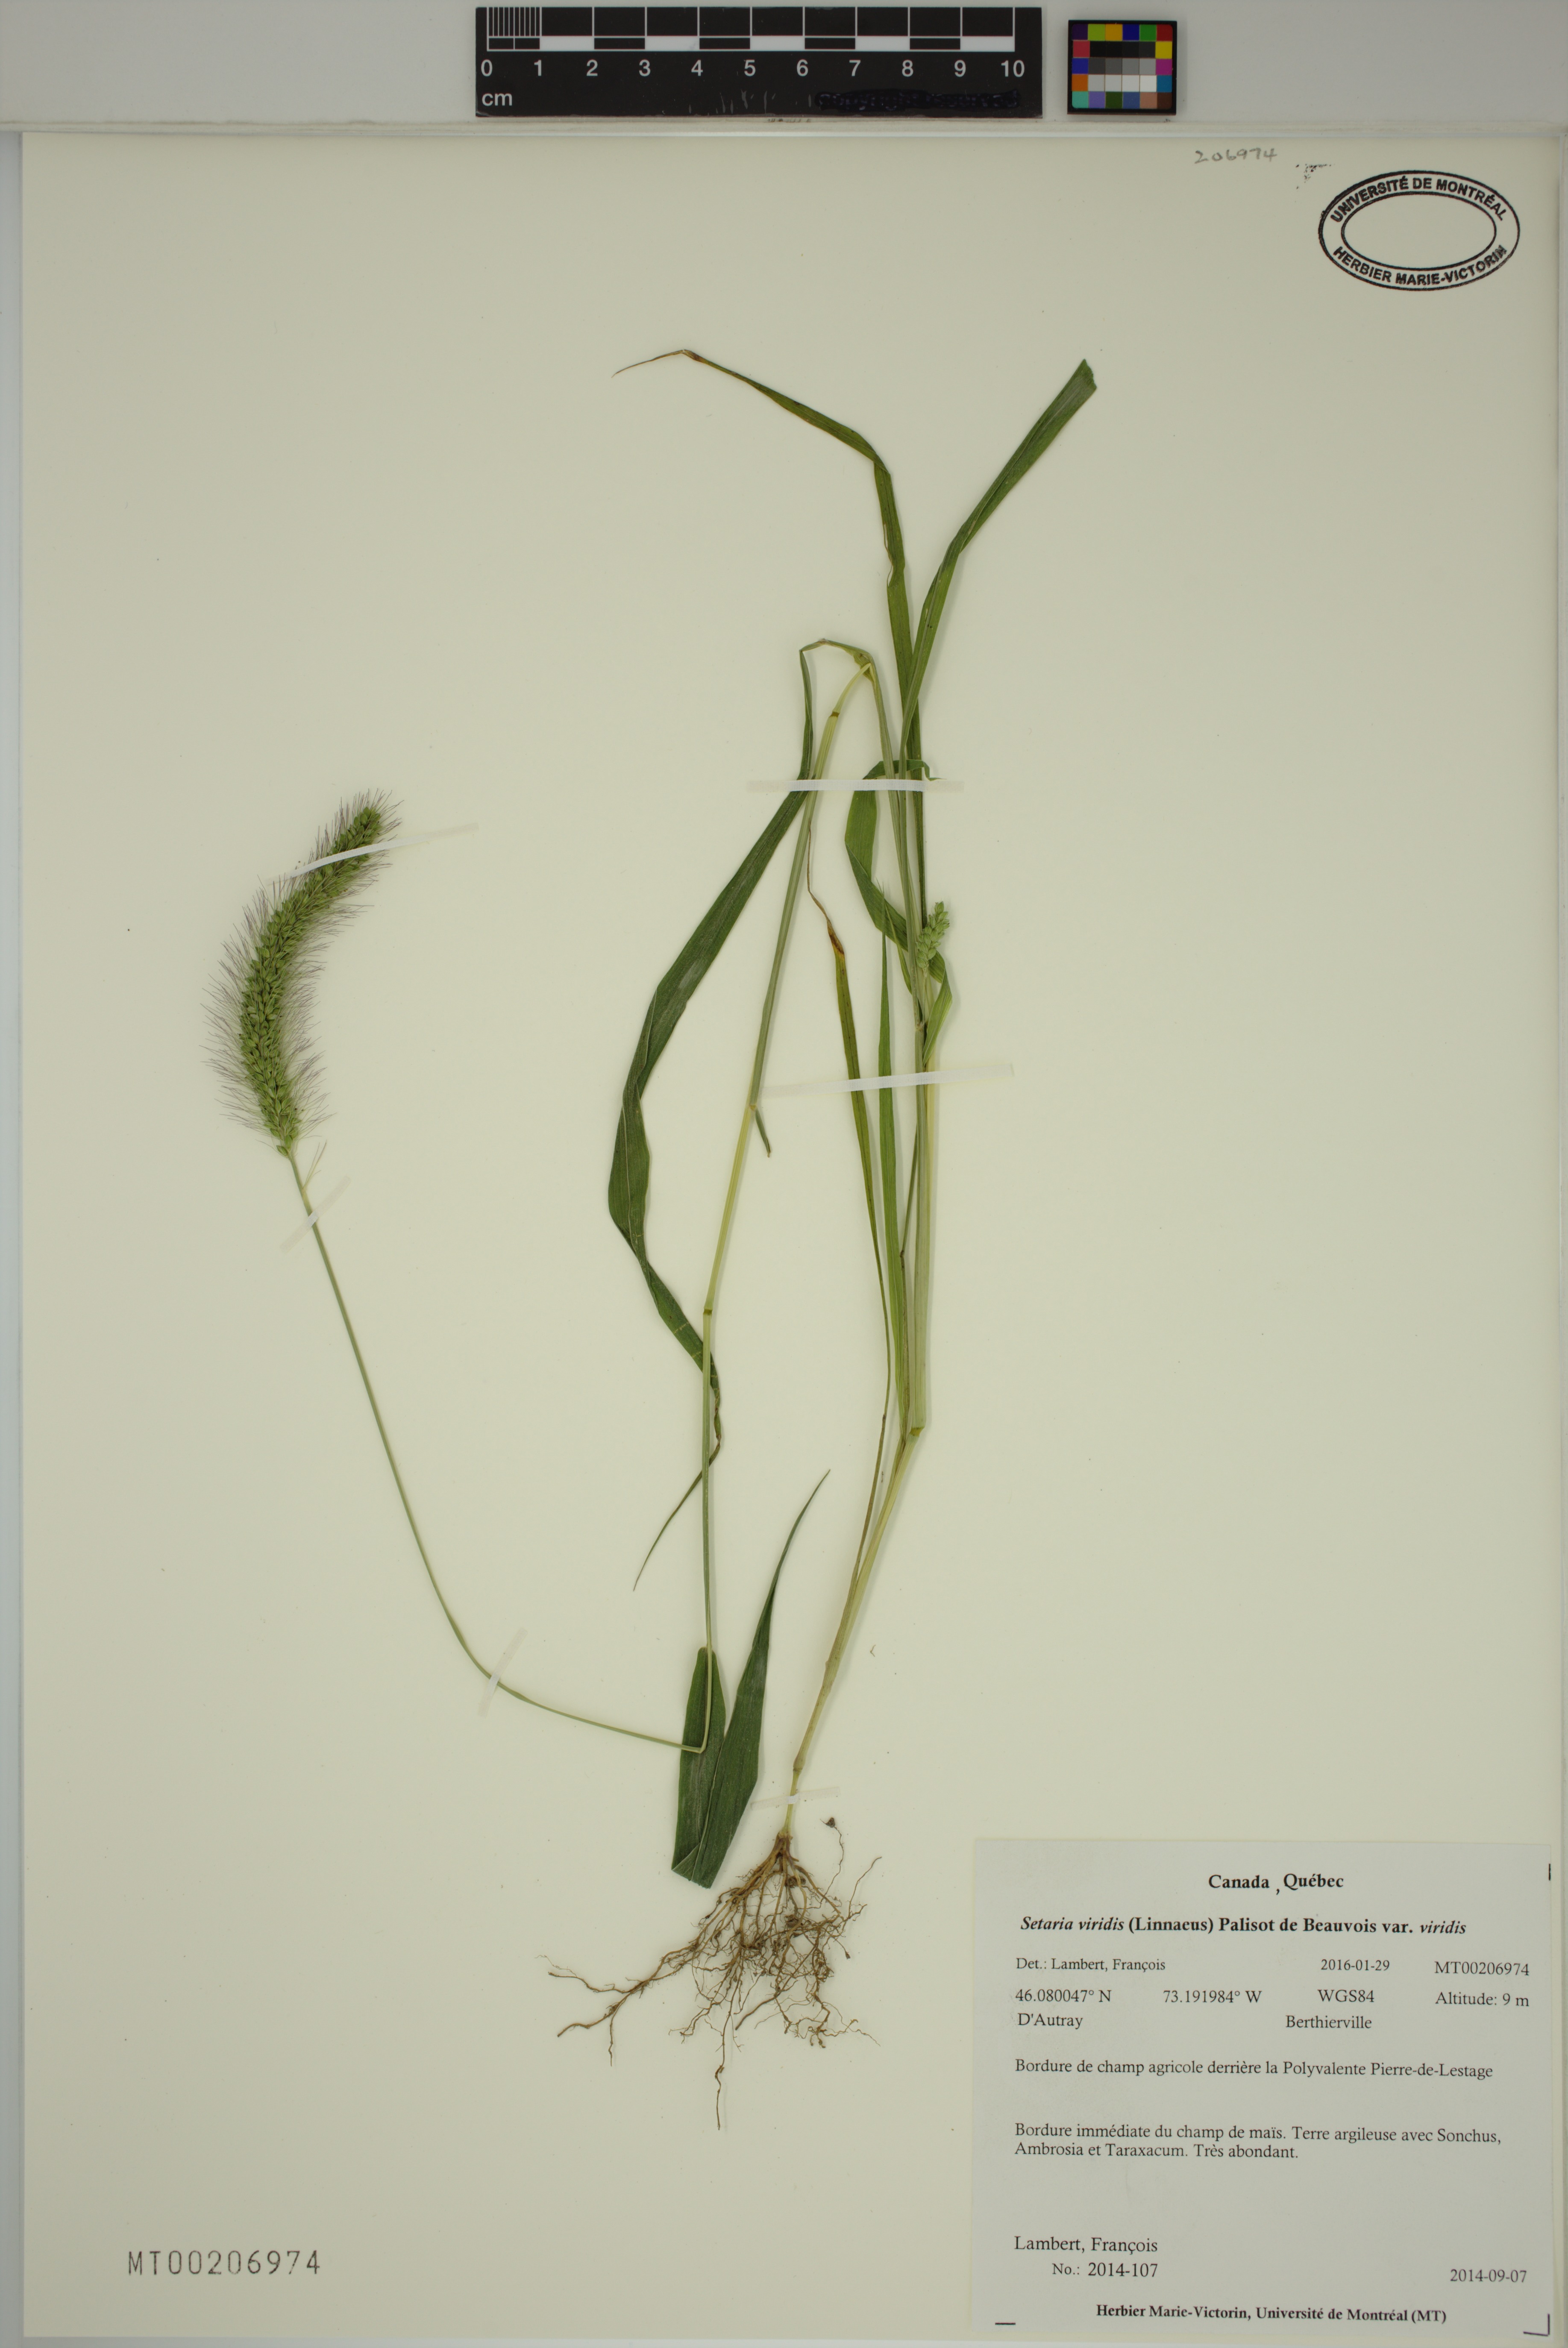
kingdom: Plantae
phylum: Tracheophyta
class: Liliopsida
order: Poales
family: Poaceae
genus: Setaria
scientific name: Setaria viridis
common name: Green bristlegrass
